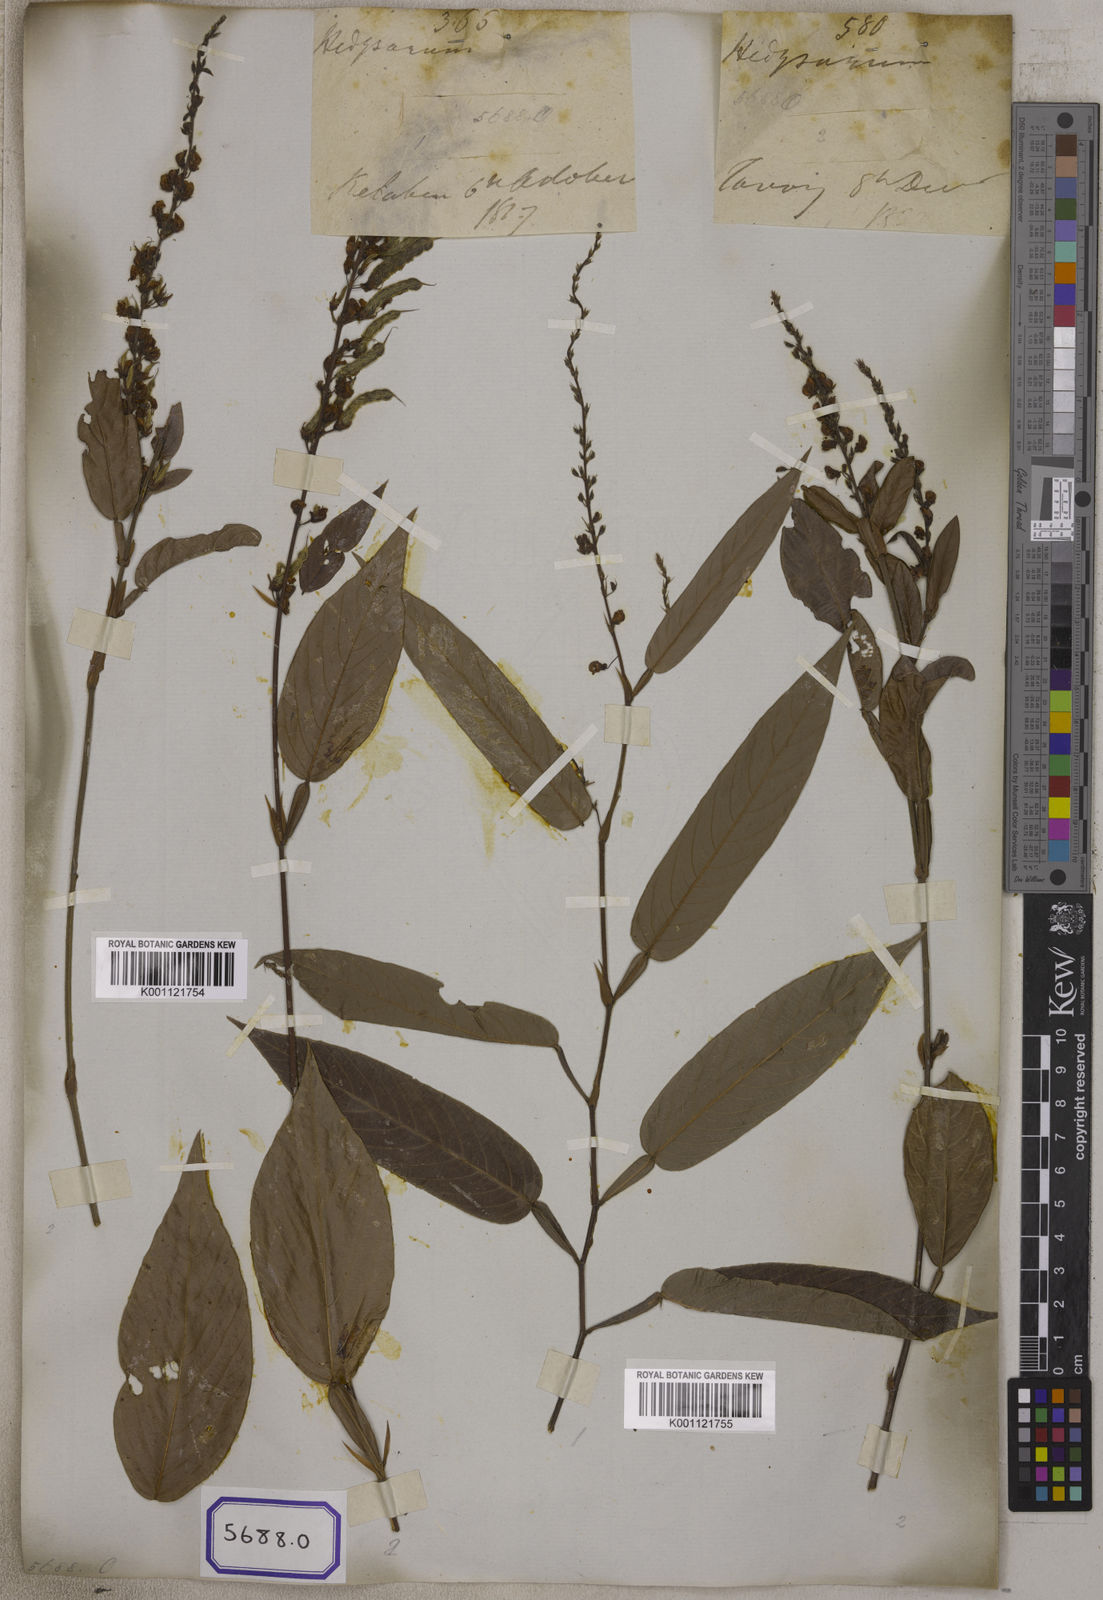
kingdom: Plantae
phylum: Tracheophyta
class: Magnoliopsida
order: Fabales
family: Fabaceae
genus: Tadehagi
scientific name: Tadehagi triquetrum
